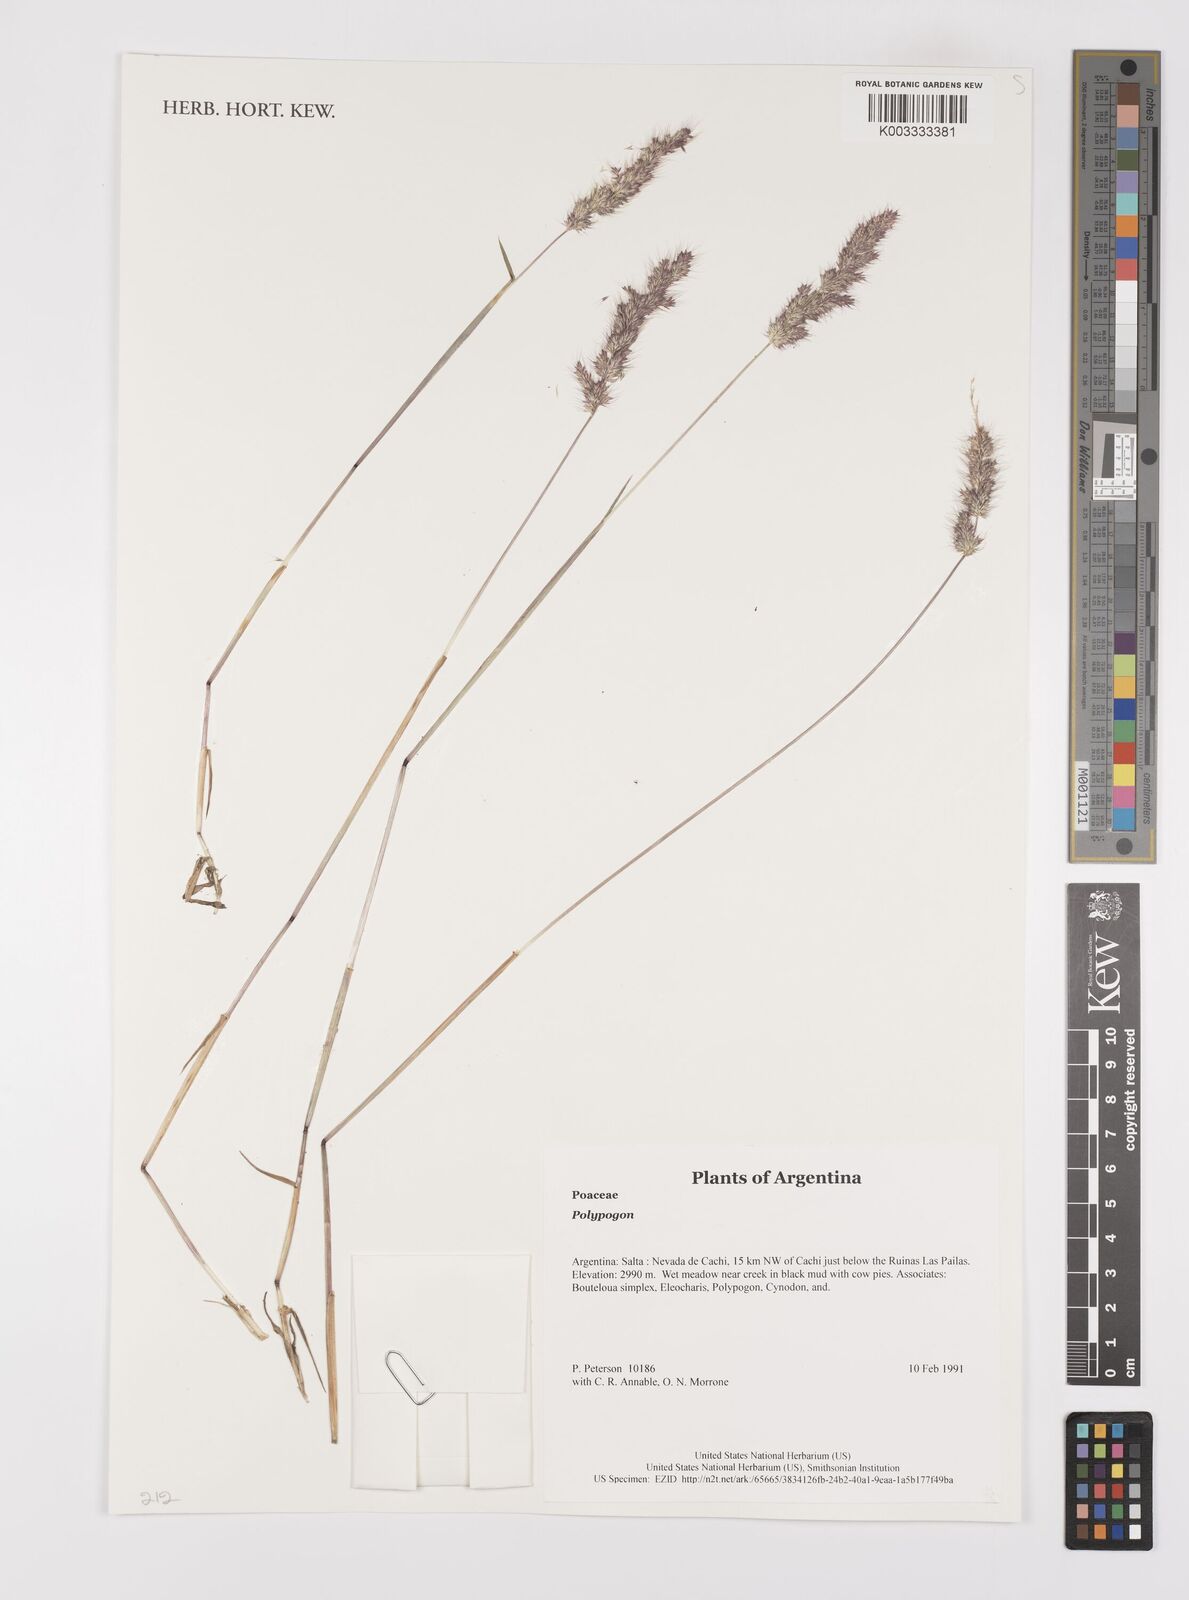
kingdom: Plantae
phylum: Tracheophyta
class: Liliopsida
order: Poales
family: Poaceae
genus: Polypogon
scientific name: Polypogon
